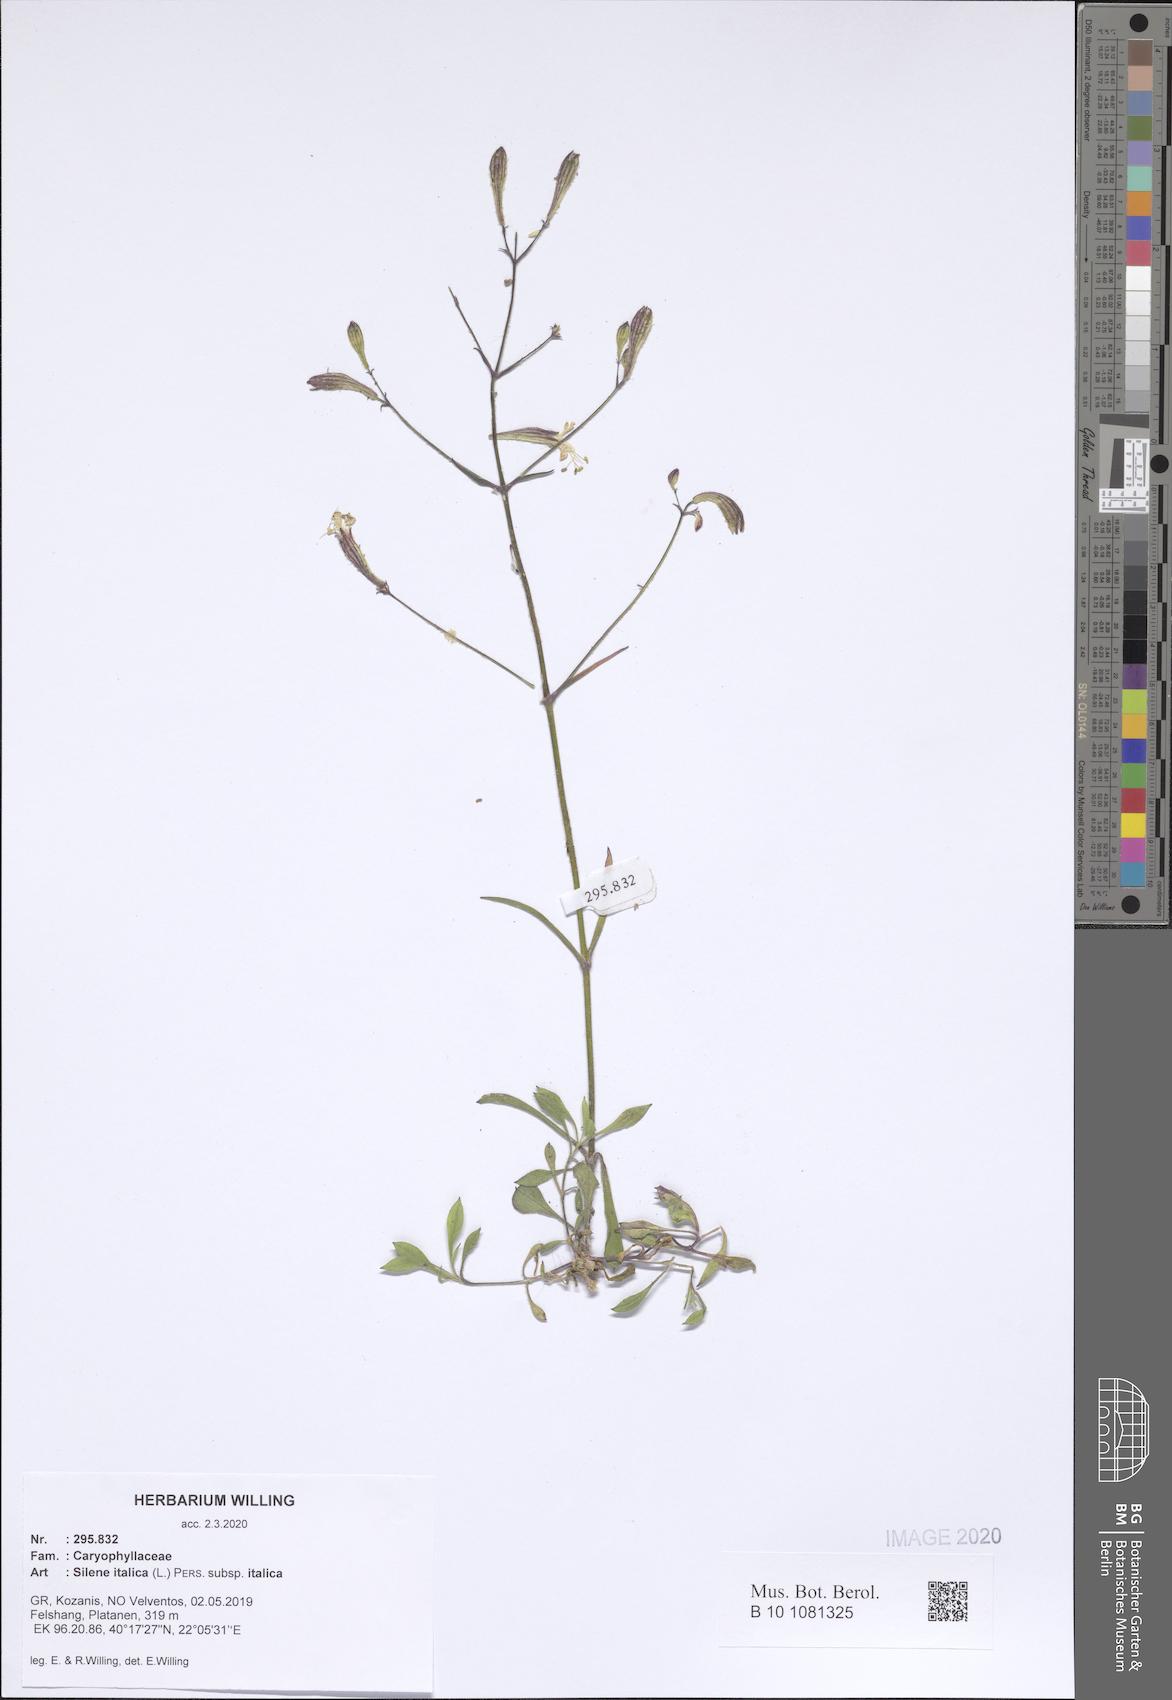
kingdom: Plantae
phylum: Tracheophyta
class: Magnoliopsida
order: Caryophyllales
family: Caryophyllaceae
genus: Silene
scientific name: Silene italica
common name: Italian catchfly
